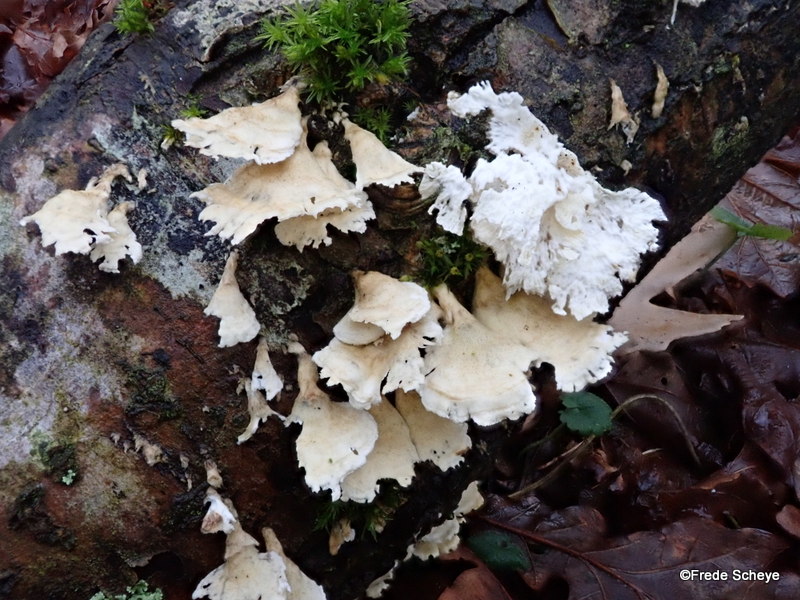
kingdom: Fungi
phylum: Basidiomycota
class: Agaricomycetes
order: Amylocorticiales
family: Amylocorticiaceae
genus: Plicaturopsis
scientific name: Plicaturopsis crispa
